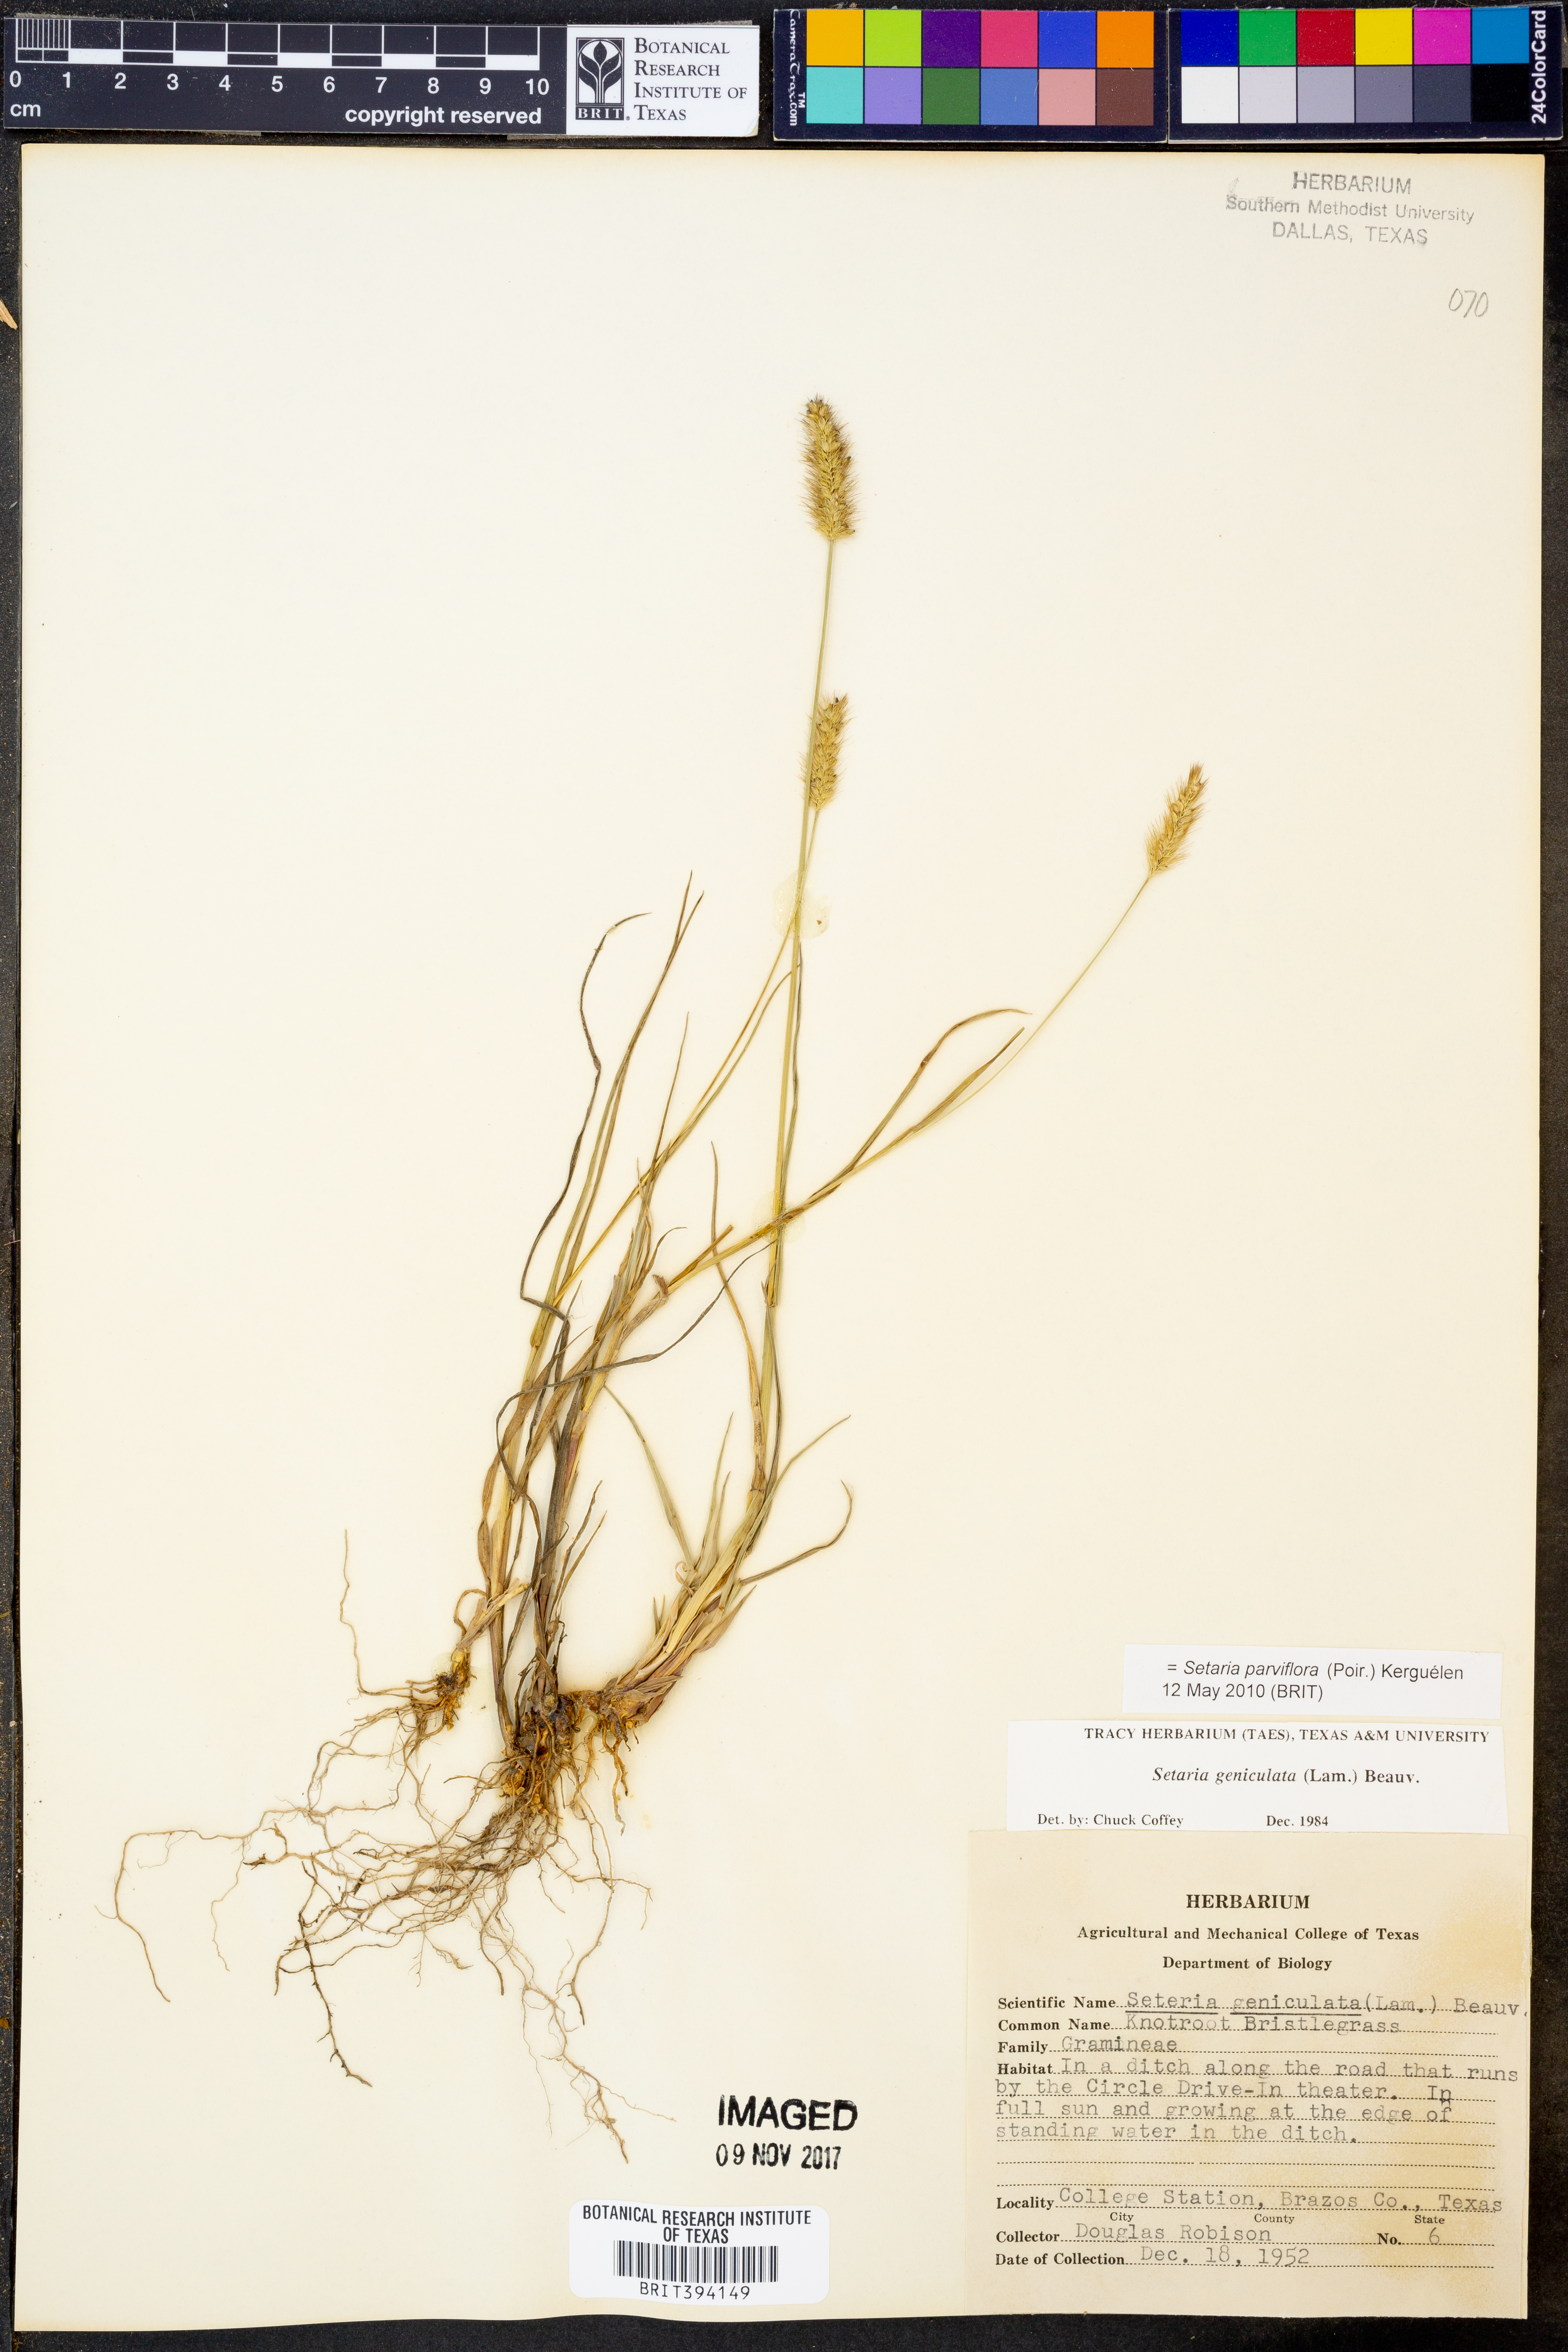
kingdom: Plantae
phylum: Tracheophyta
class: Liliopsida
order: Poales
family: Poaceae
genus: Setaria
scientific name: Setaria parviflora
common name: Knotroot bristle-grass
